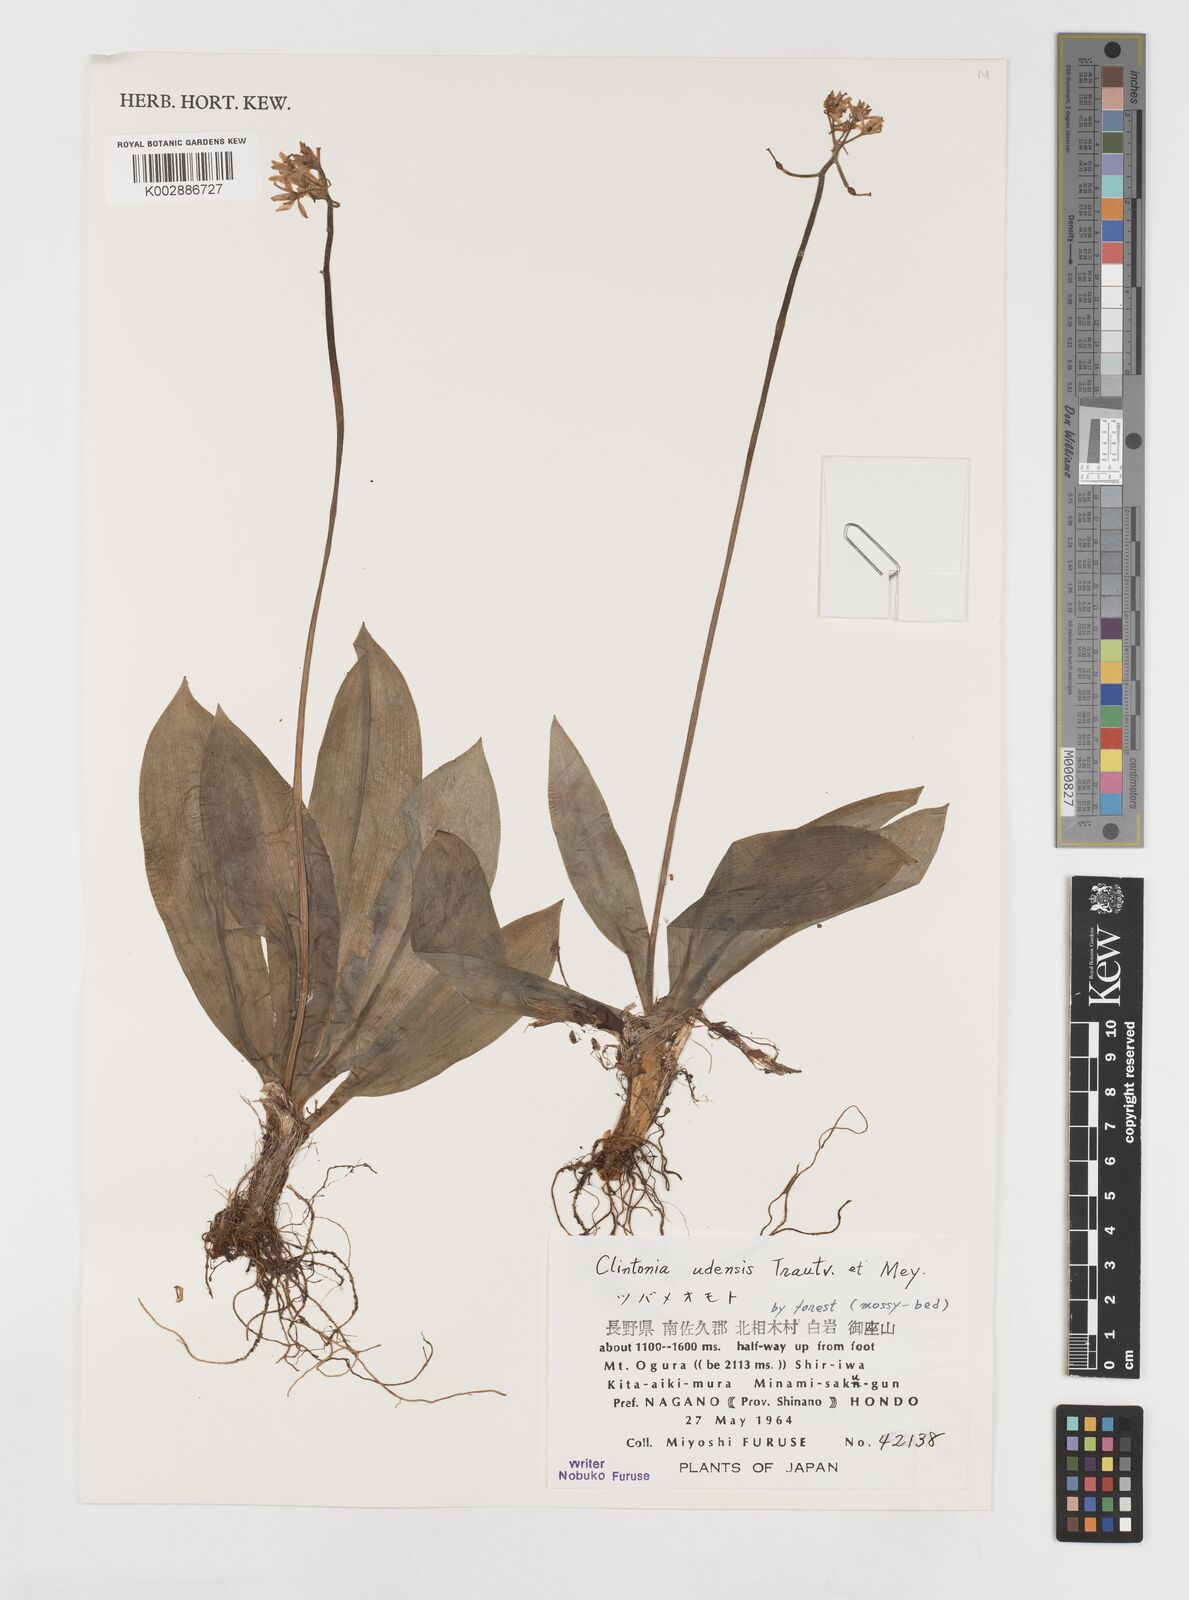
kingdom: Plantae
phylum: Tracheophyta
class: Liliopsida
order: Liliales
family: Liliaceae
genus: Clintonia
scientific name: Clintonia udensis
